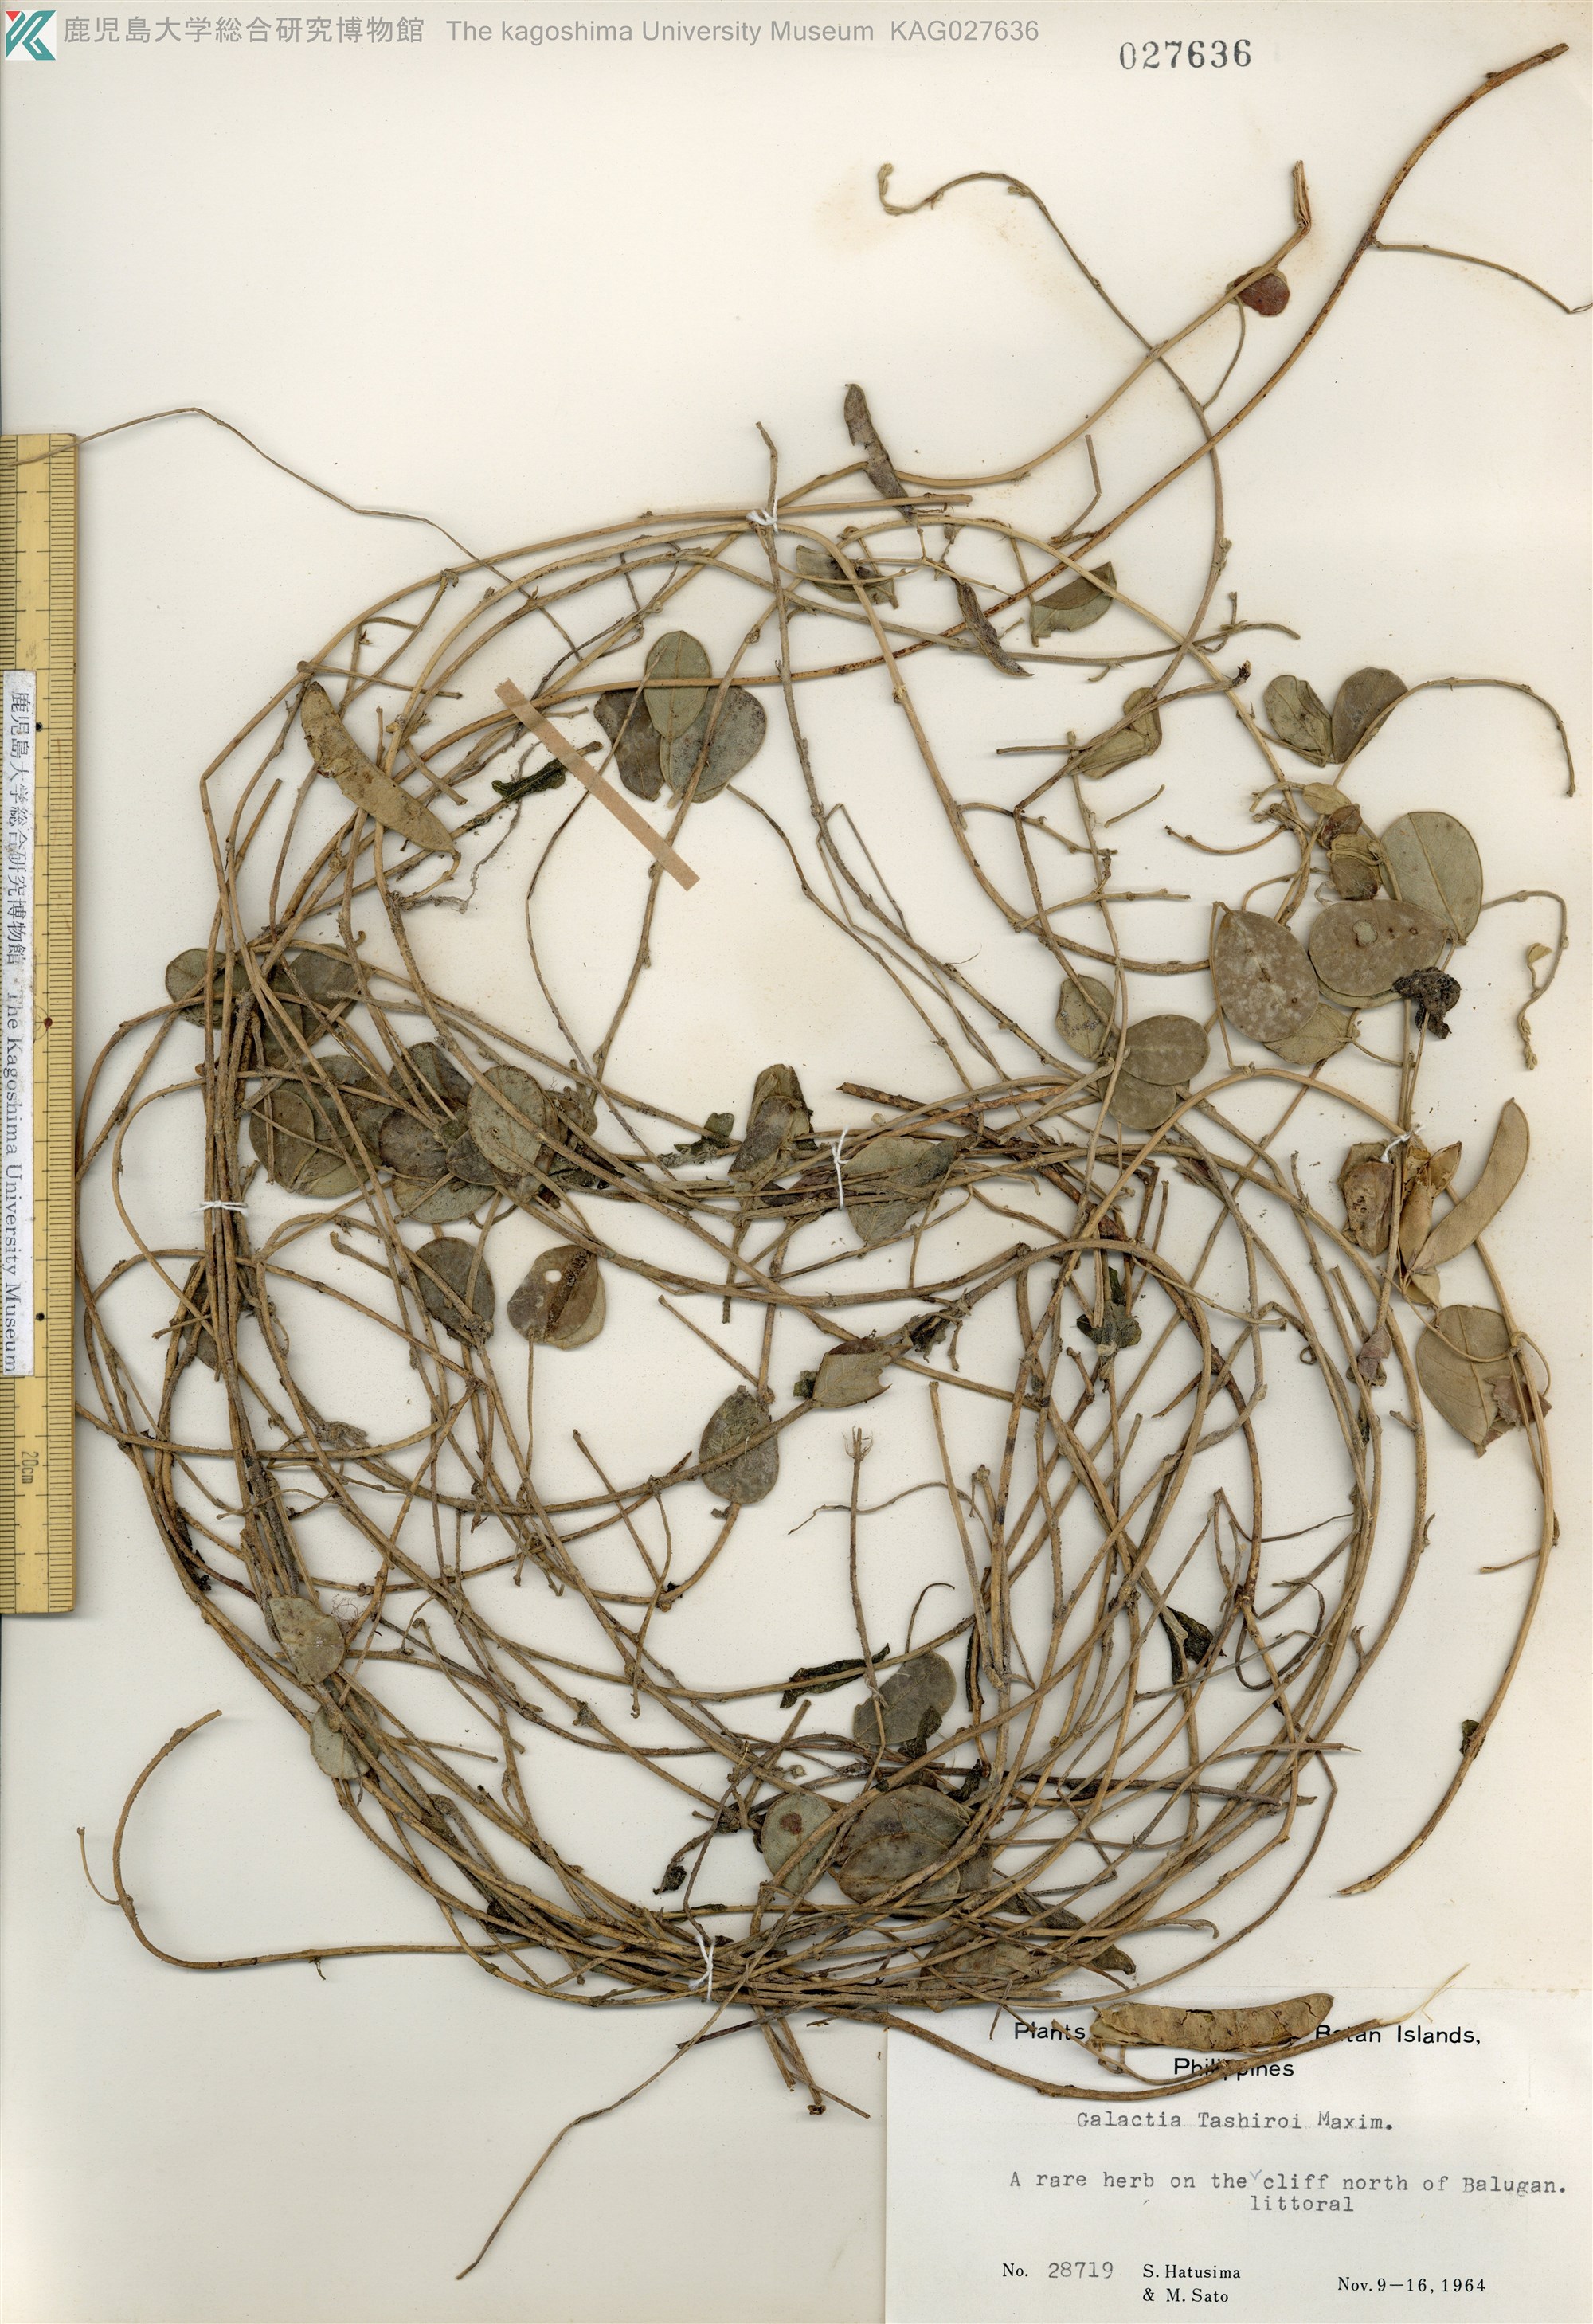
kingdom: Plantae
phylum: Tracheophyta
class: Magnoliopsida
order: Fabales
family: Fabaceae
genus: Galactia
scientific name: Galactia tashiroi
